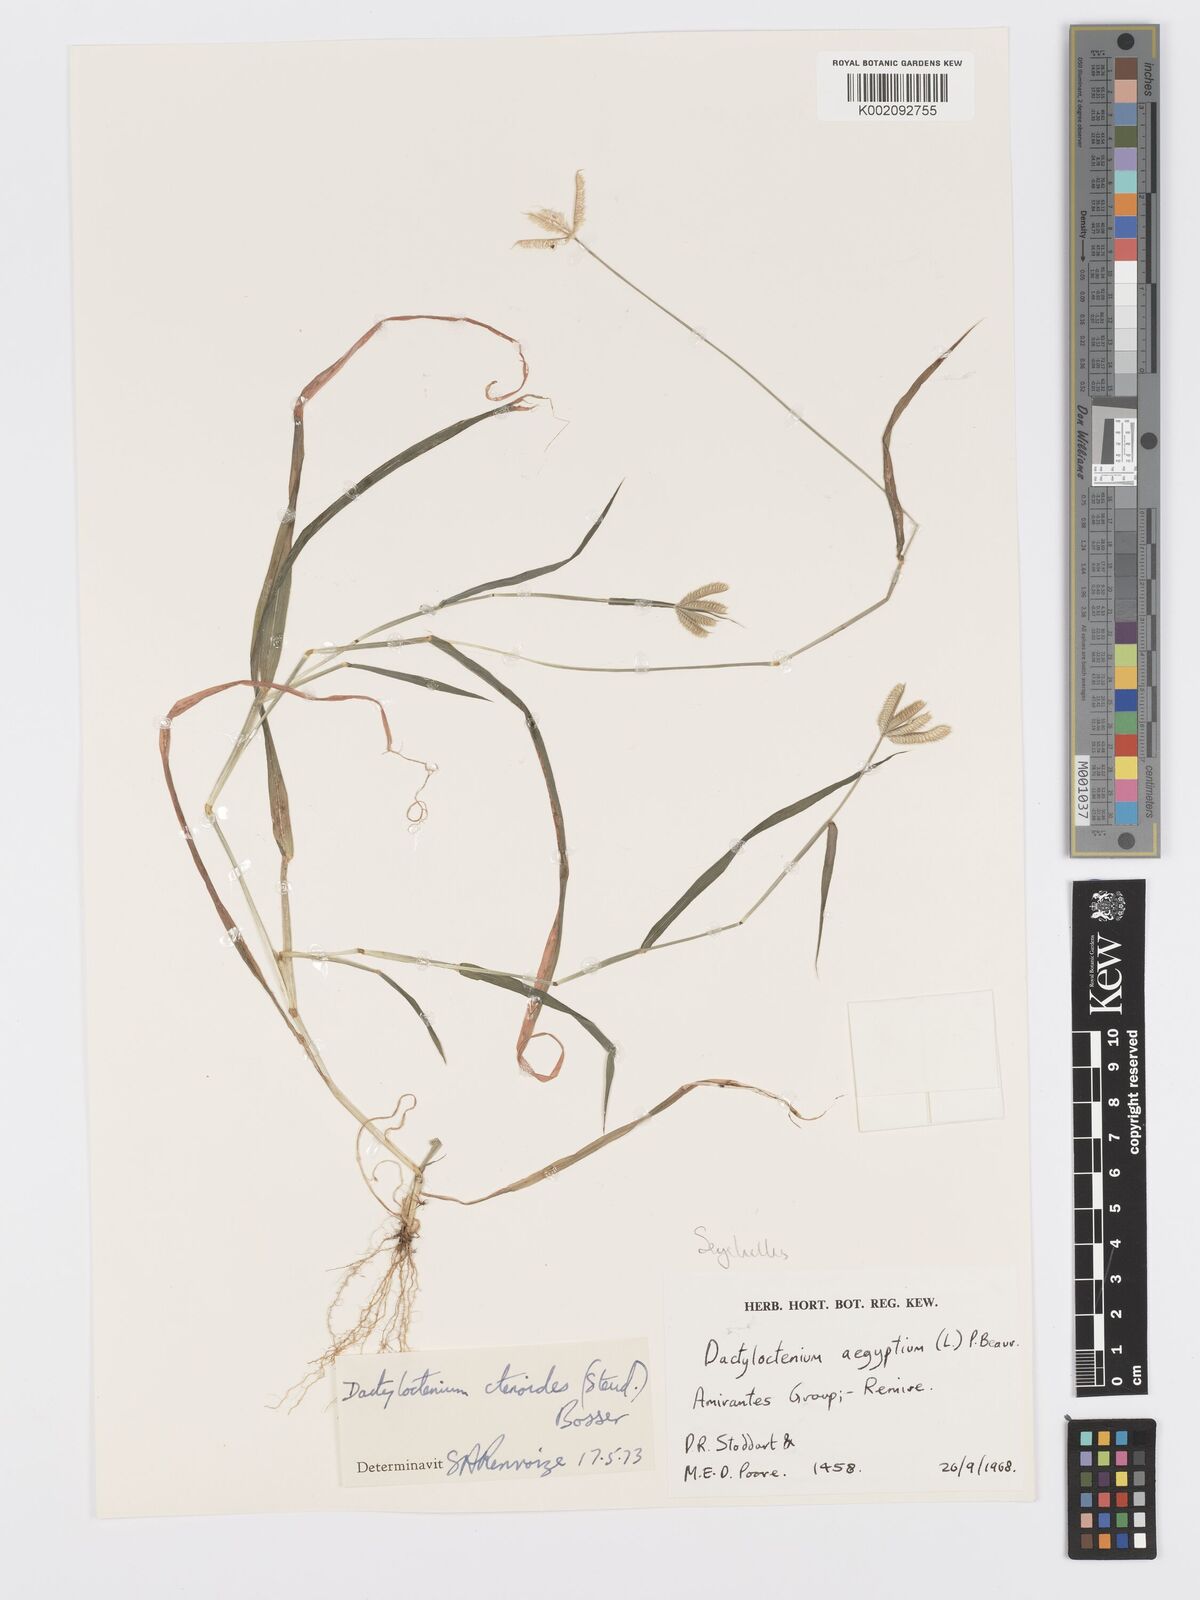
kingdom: Plantae
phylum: Tracheophyta
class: Liliopsida
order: Poales
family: Poaceae
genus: Dactyloctenium
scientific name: Dactyloctenium ctenoides
